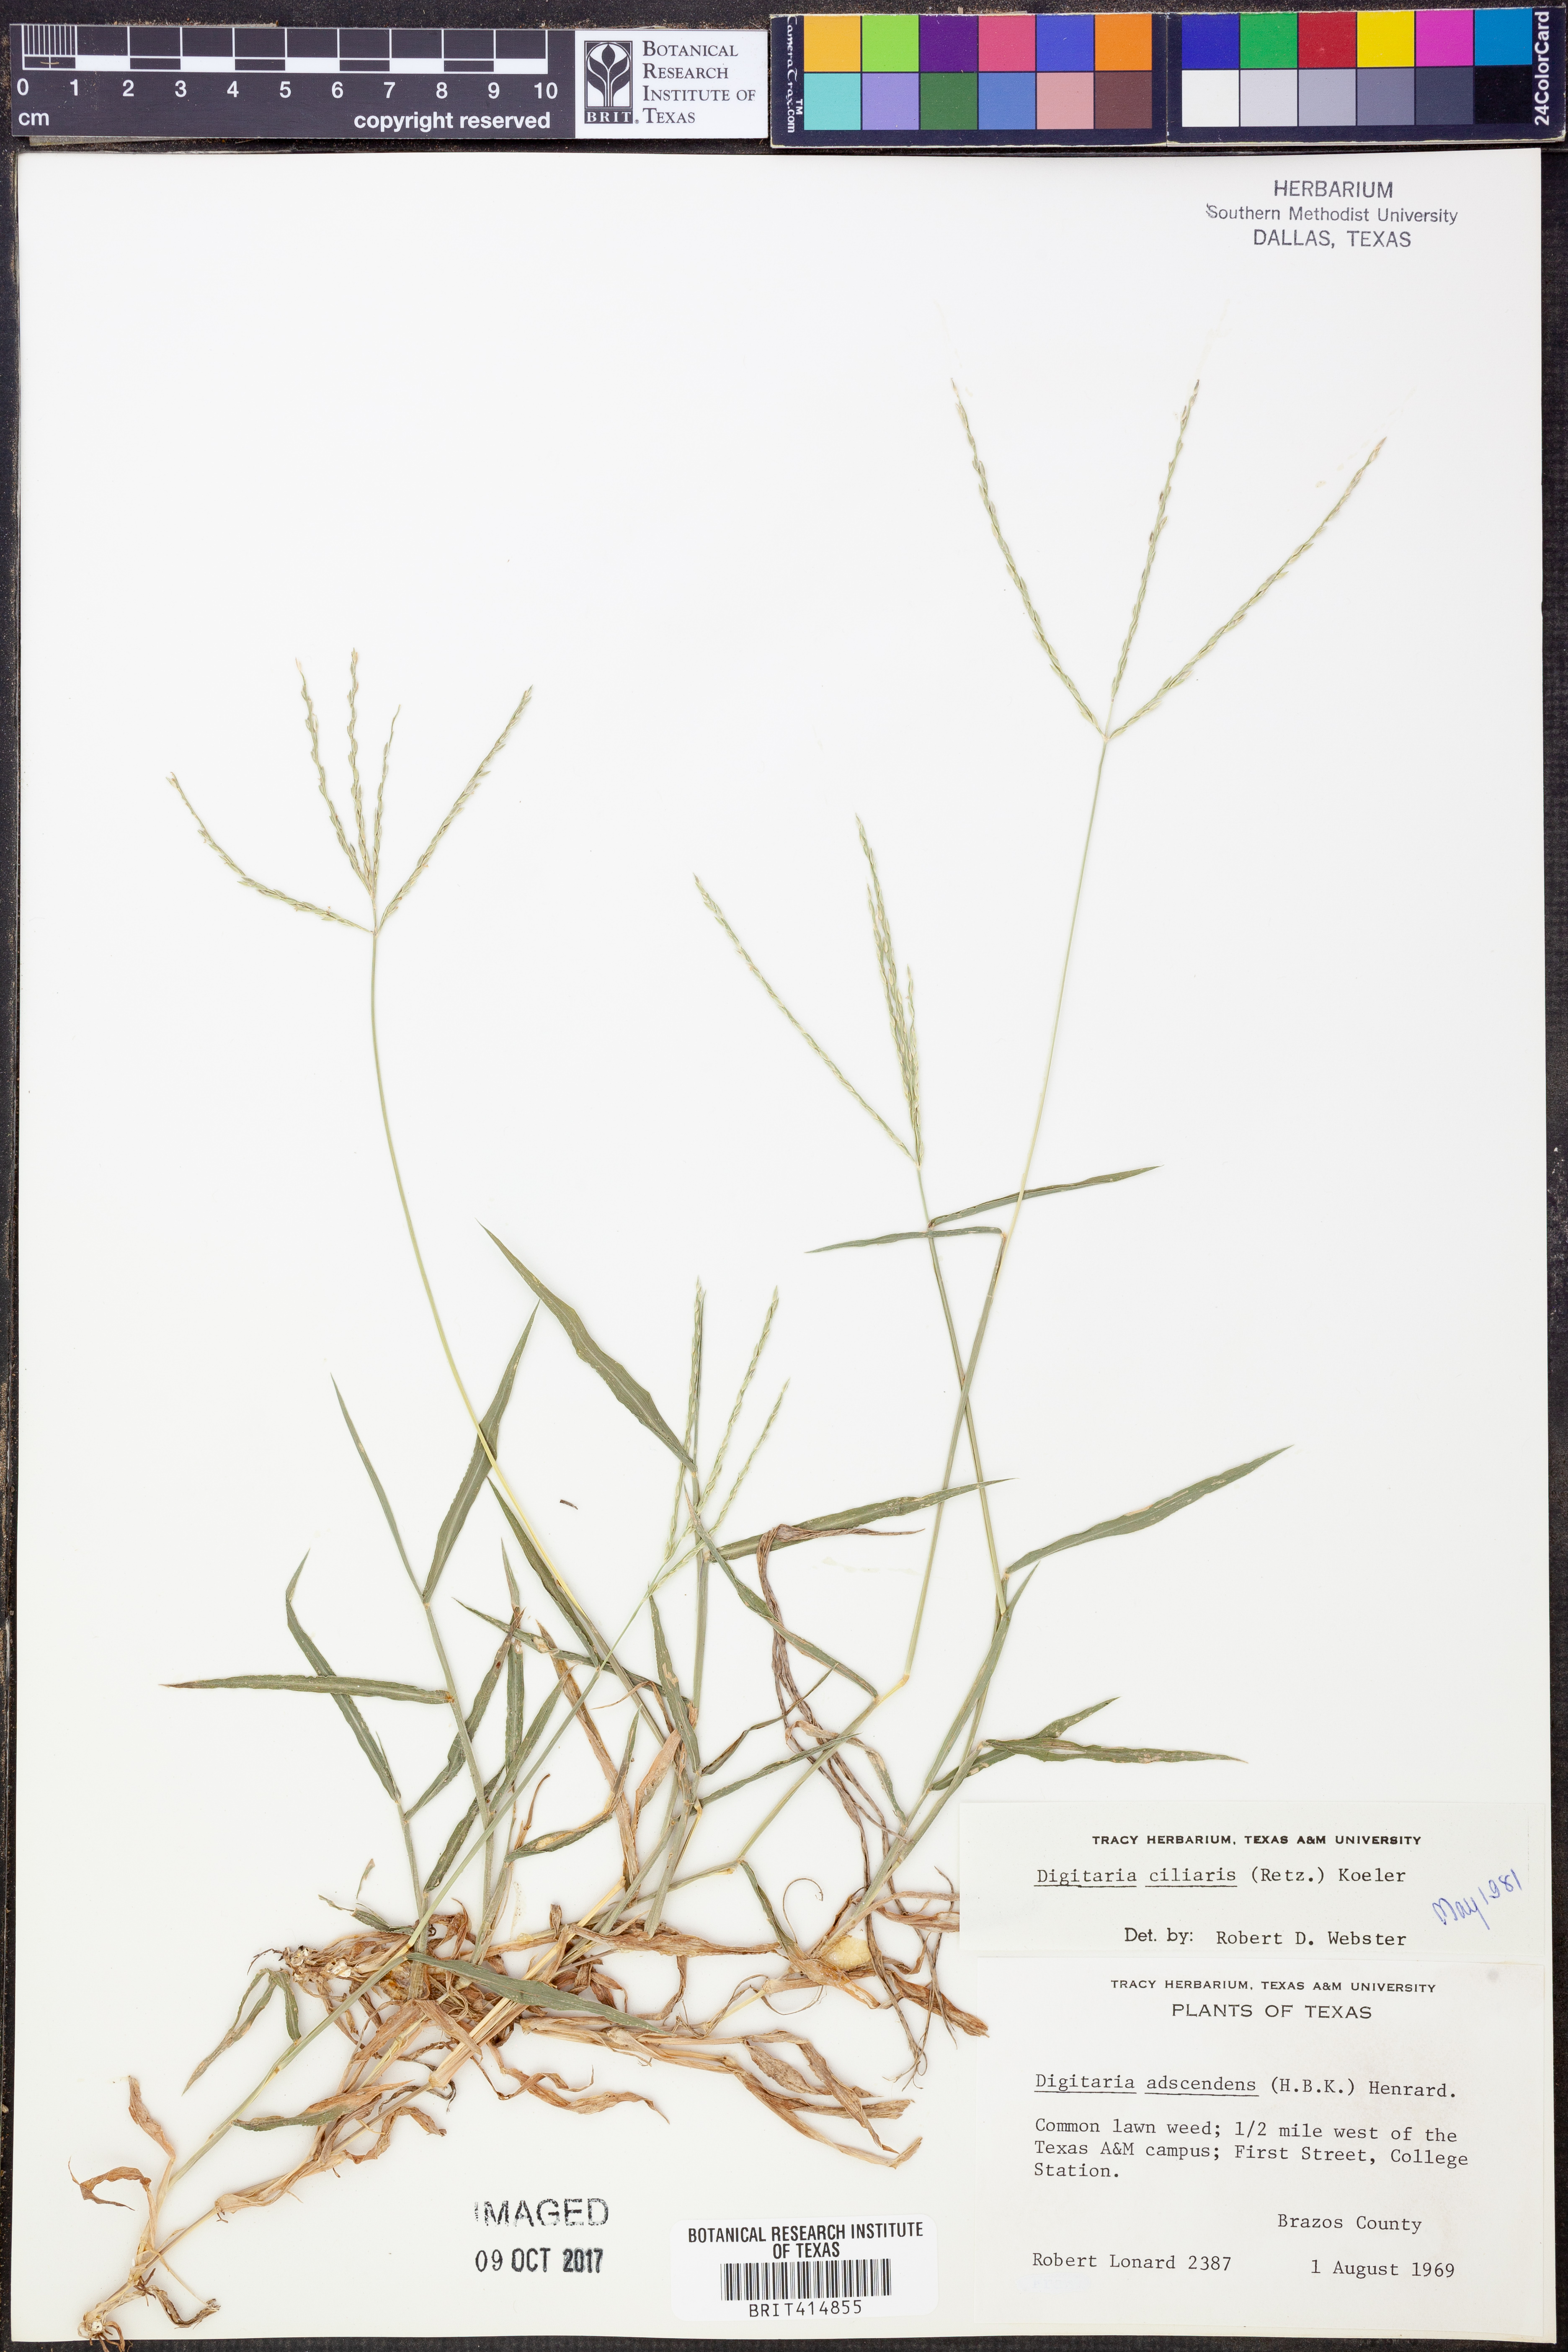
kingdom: Plantae
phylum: Tracheophyta
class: Liliopsida
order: Poales
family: Poaceae
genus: Digitaria
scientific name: Digitaria ciliaris
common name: Tropical finger-grass
